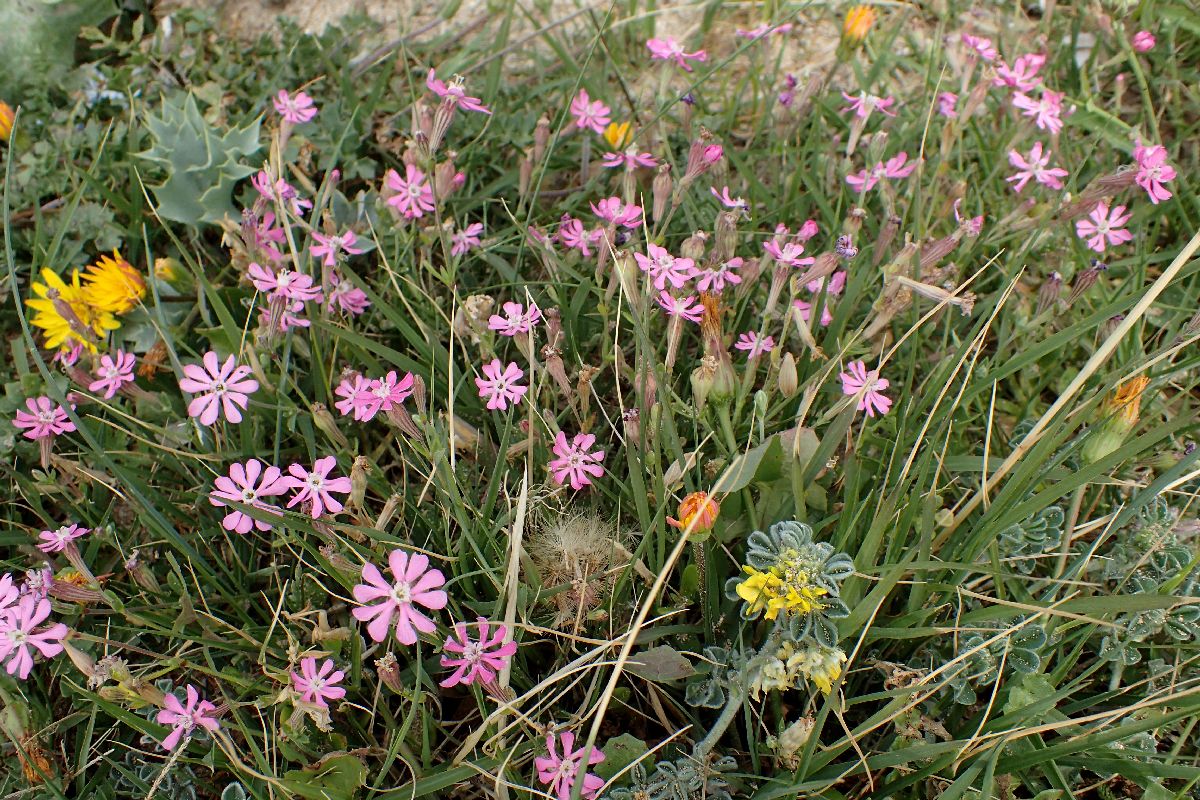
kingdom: Plantae
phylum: Tracheophyta
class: Magnoliopsida
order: Caryophyllales
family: Caryophyllaceae
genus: Silene
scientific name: Silene colorata
